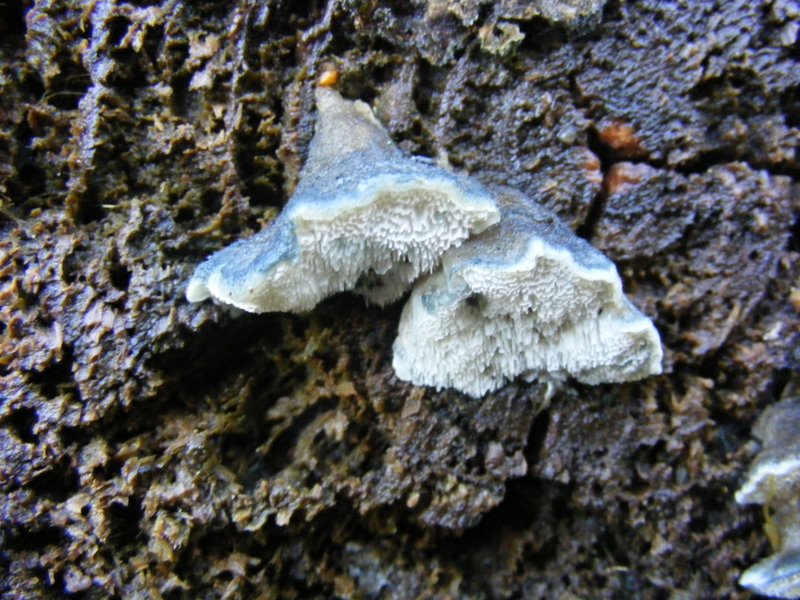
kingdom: Fungi
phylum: Basidiomycota
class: Agaricomycetes
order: Polyporales
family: Polyporaceae
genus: Cyanosporus
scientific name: Cyanosporus caesius
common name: blålig kødporesvamp
